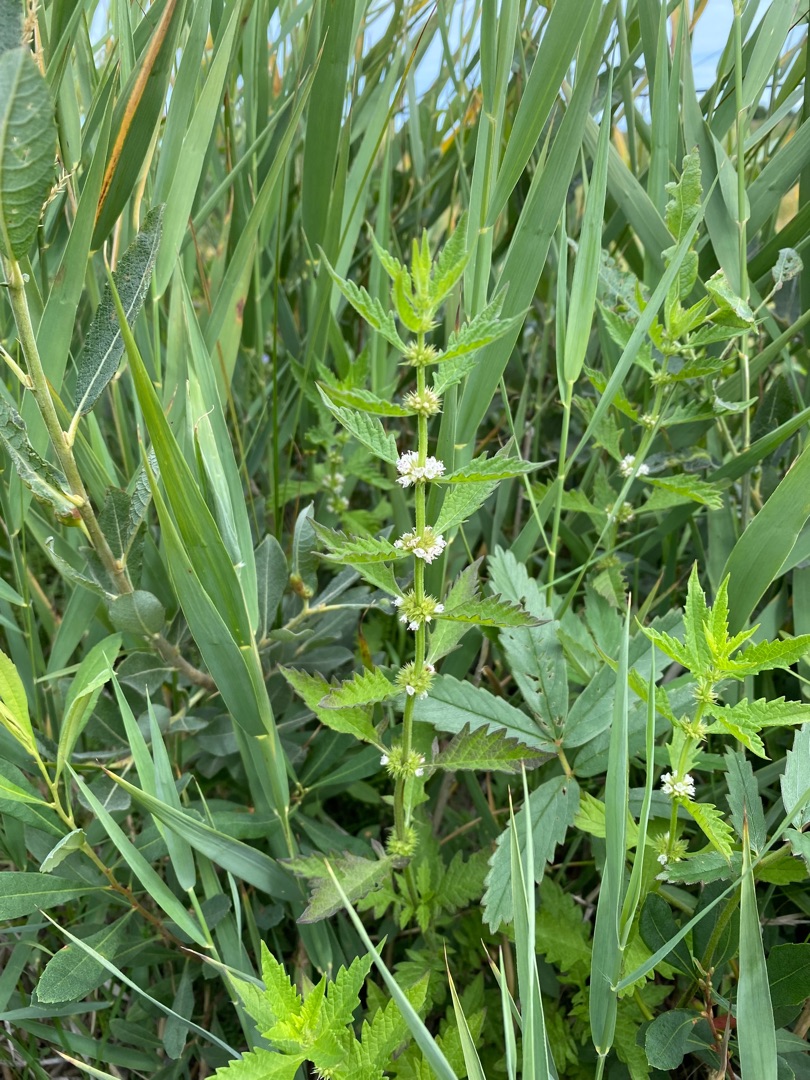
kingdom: Plantae
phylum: Tracheophyta
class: Magnoliopsida
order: Lamiales
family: Lamiaceae
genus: Lycopus
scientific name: Lycopus europaeus
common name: Sværtevæld
